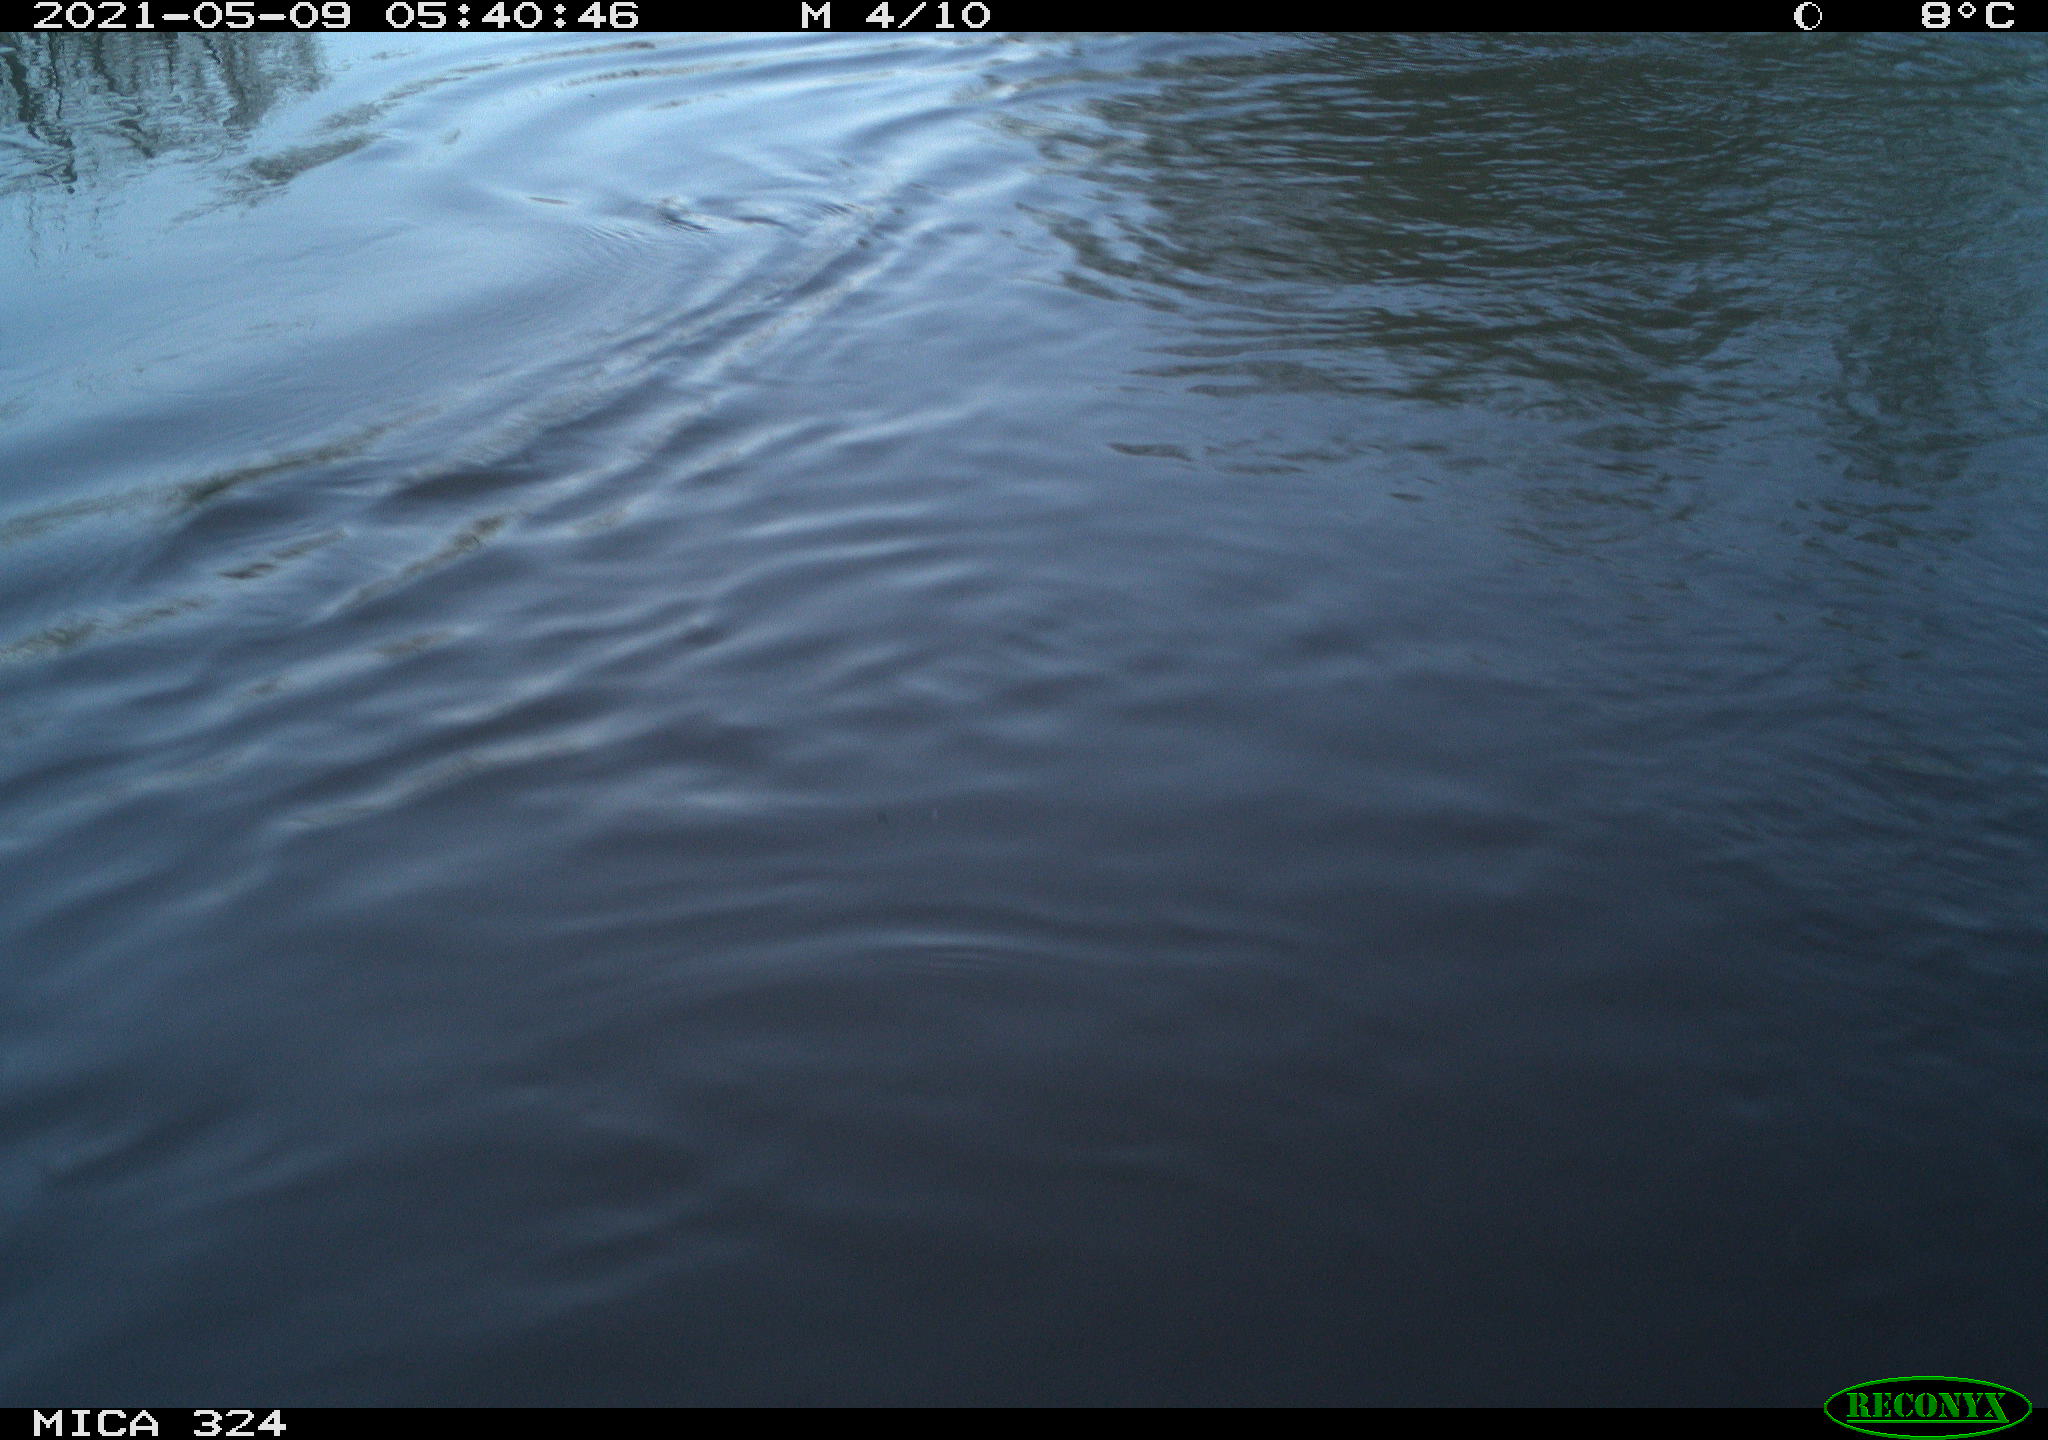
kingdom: Animalia
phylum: Chordata
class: Aves
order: Anseriformes
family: Anatidae
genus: Anas
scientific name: Anas platyrhynchos
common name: Mallard
